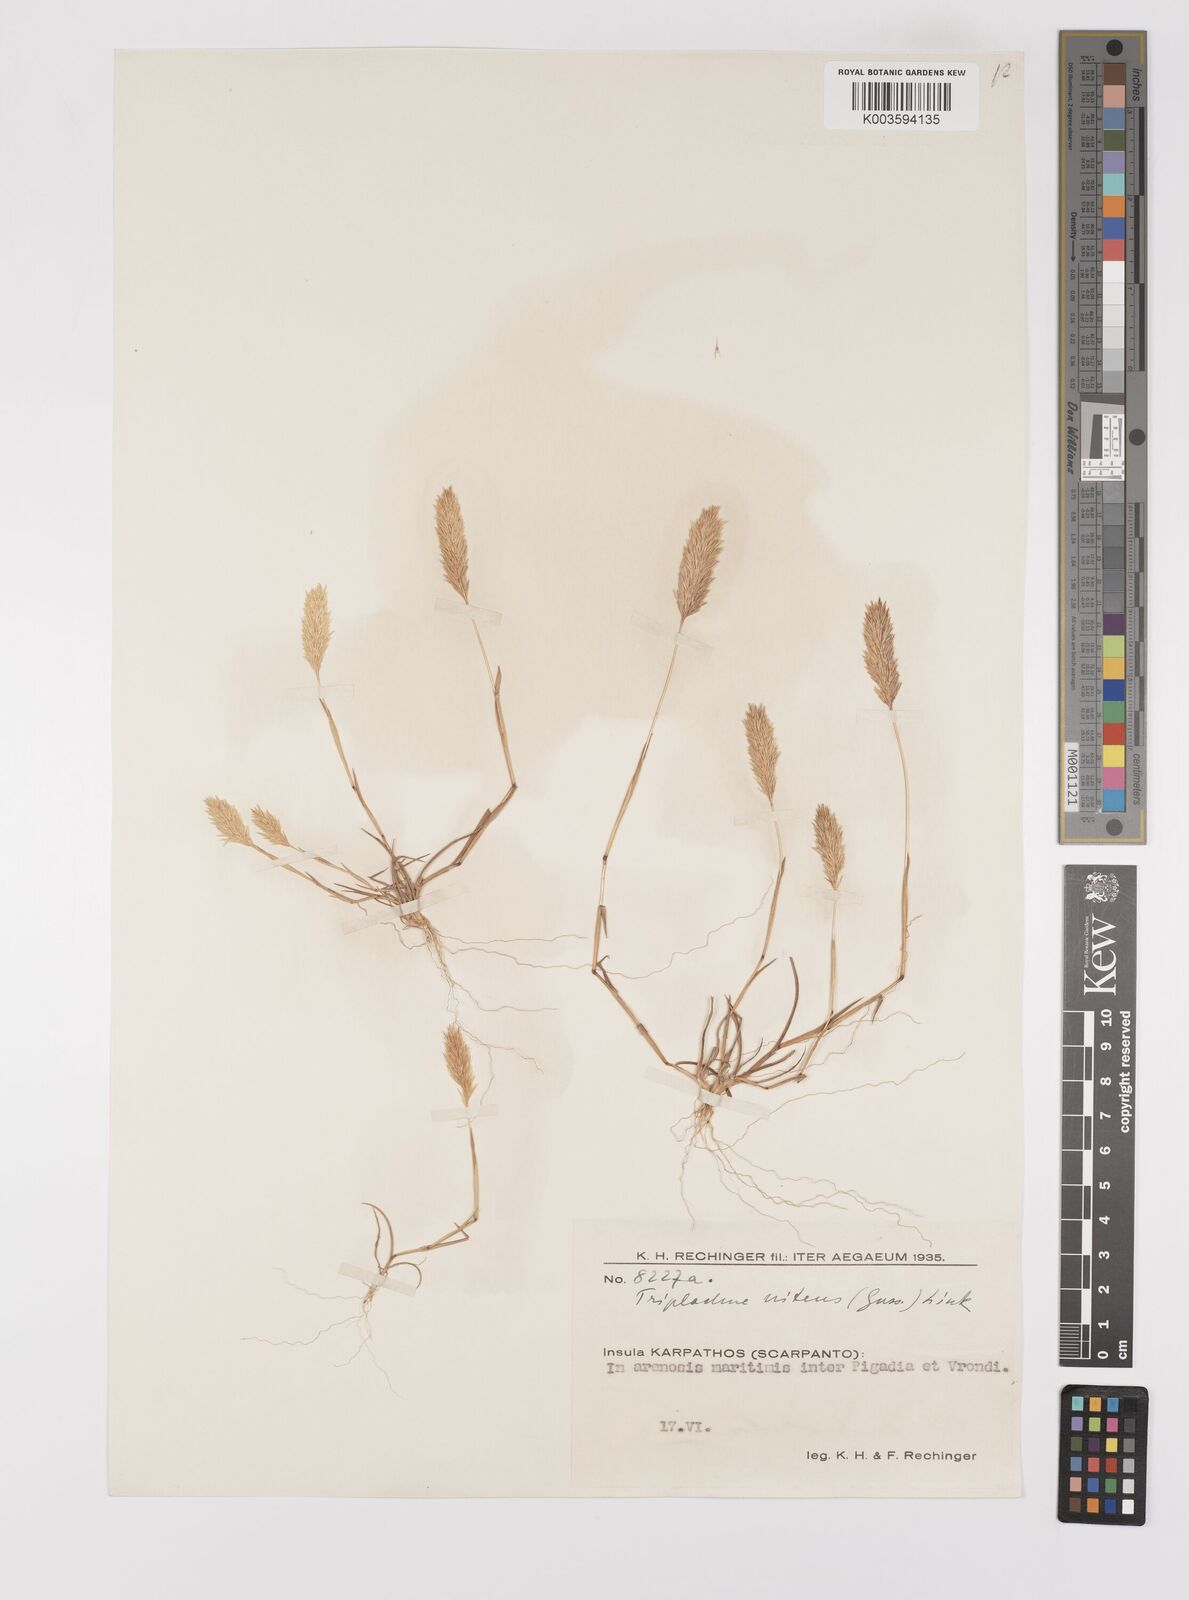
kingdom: Plantae
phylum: Tracheophyta
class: Liliopsida
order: Poales
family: Poaceae
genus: Triplachne
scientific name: Triplachne nitens
